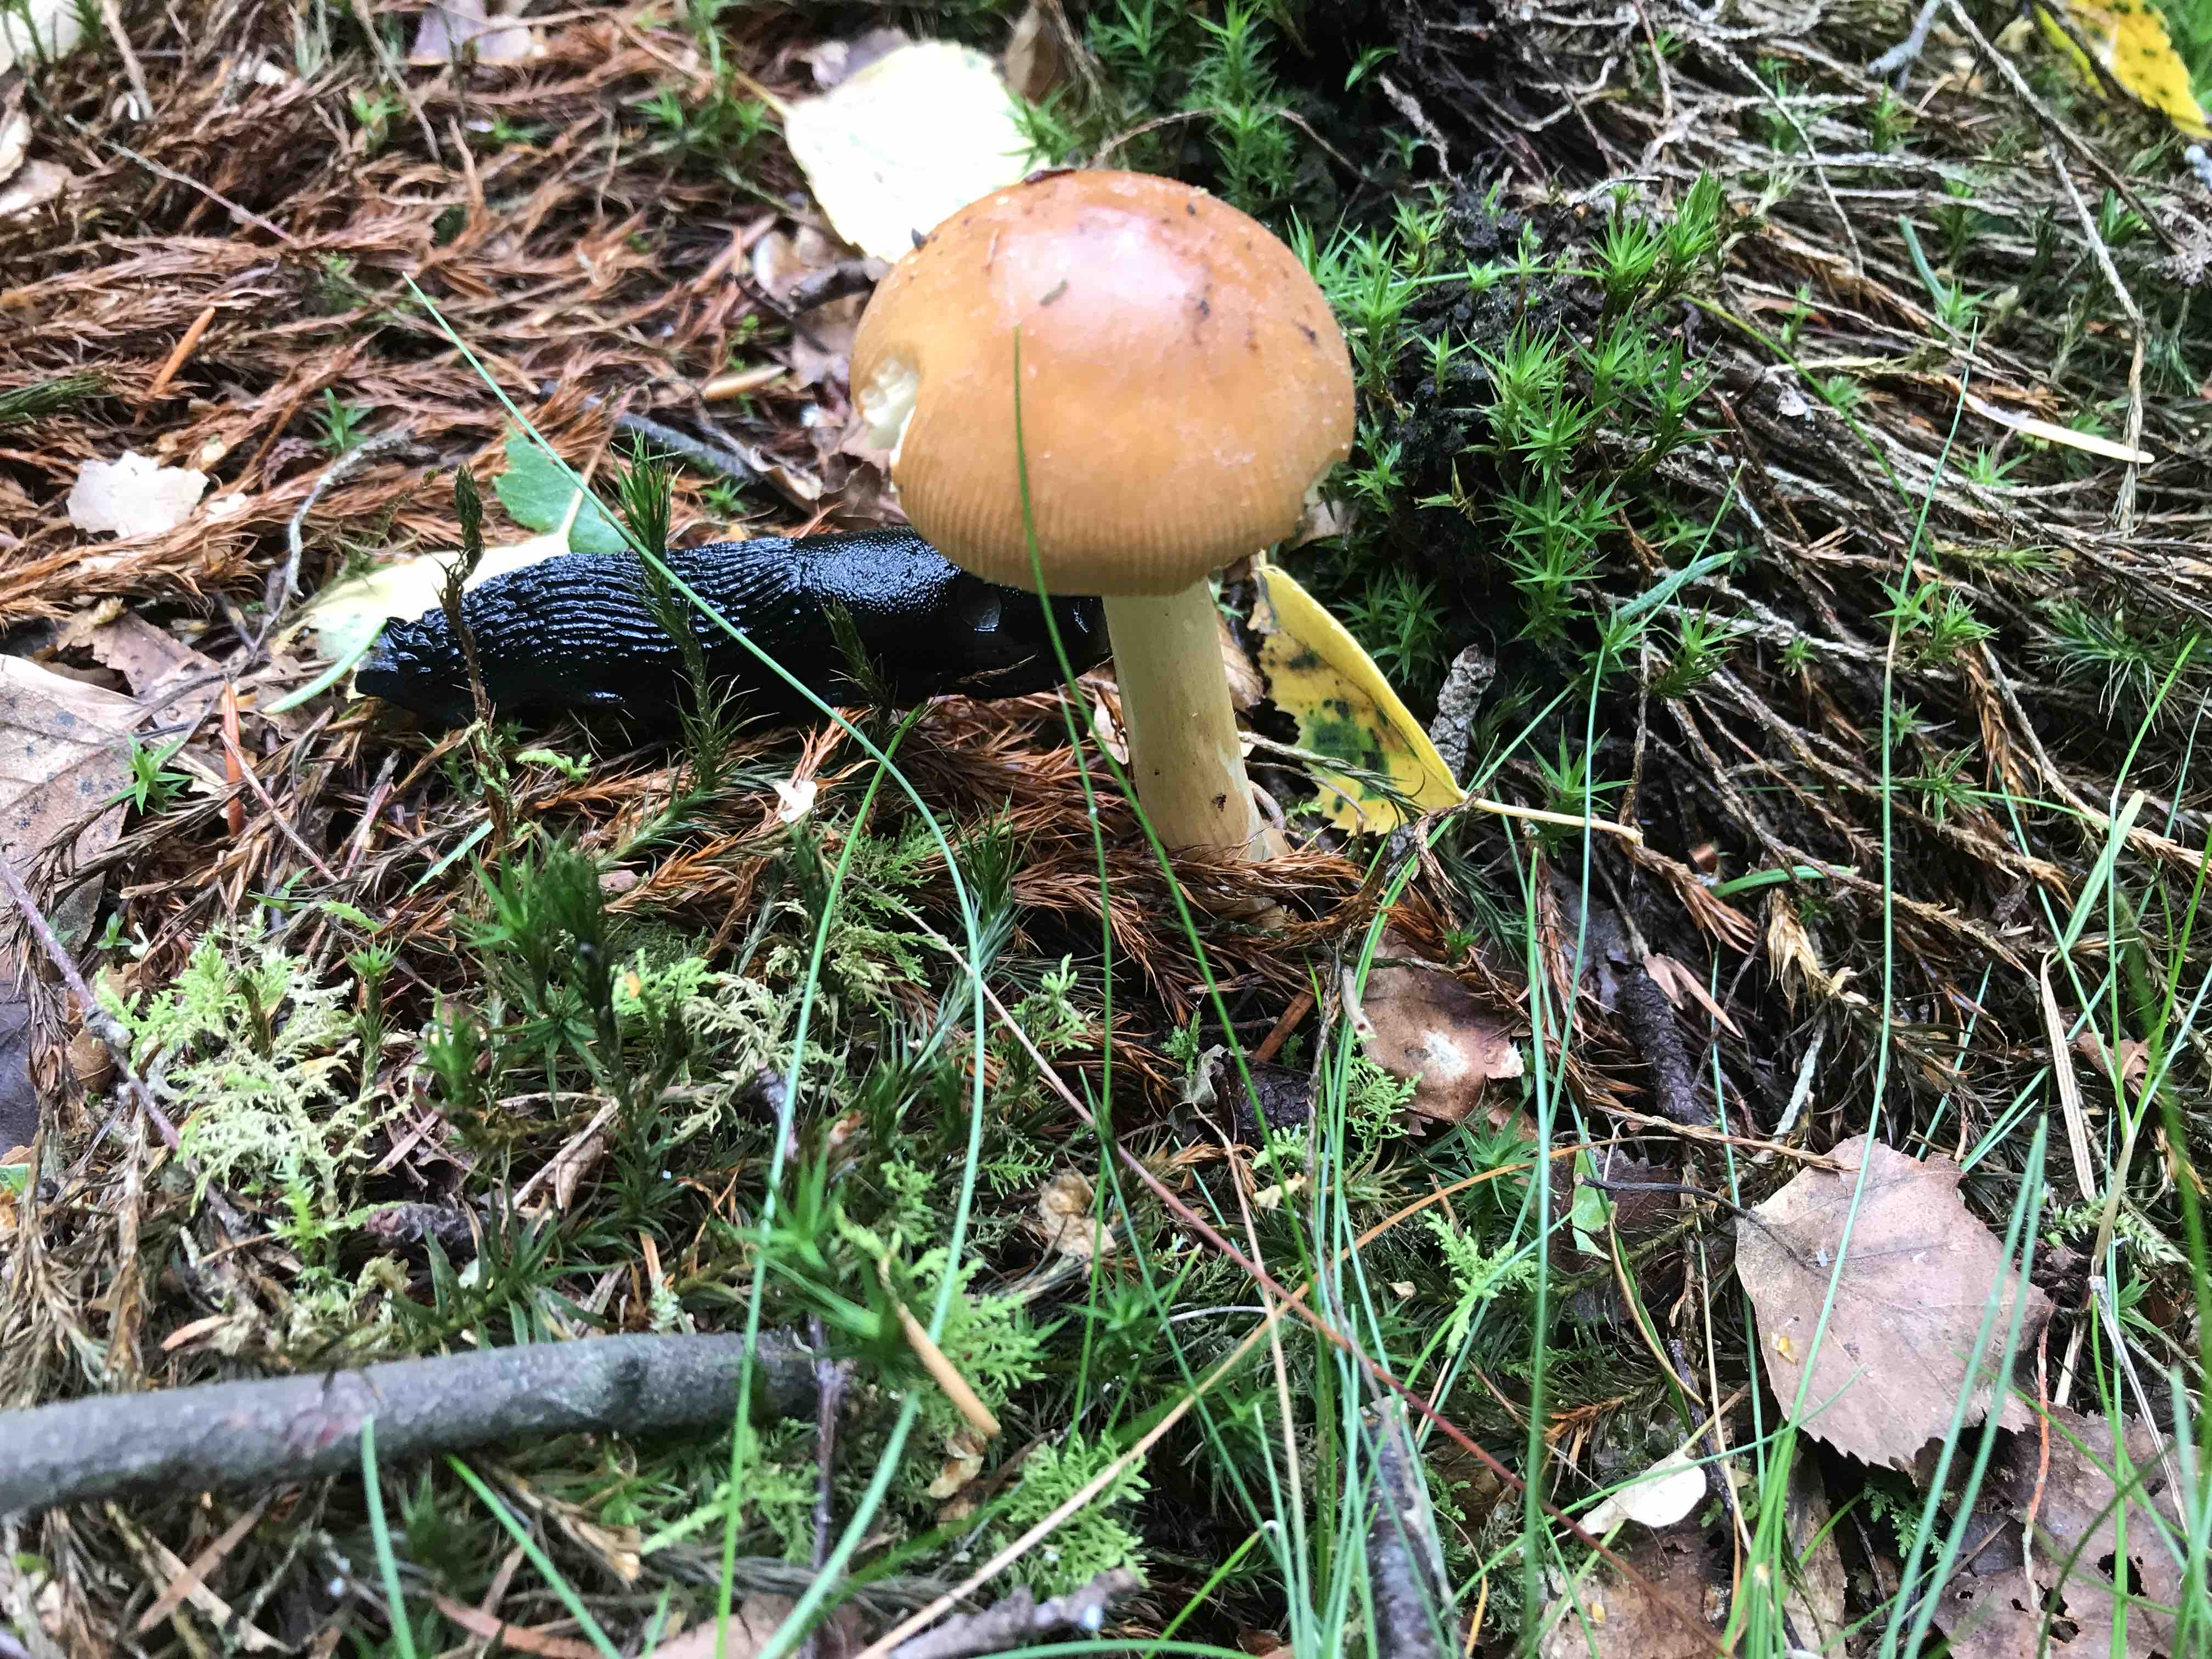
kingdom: Fungi
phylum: Basidiomycota
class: Agaricomycetes
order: Agaricales
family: Amanitaceae
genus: Amanita
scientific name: Amanita fulva
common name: brun kam-fluesvamp
